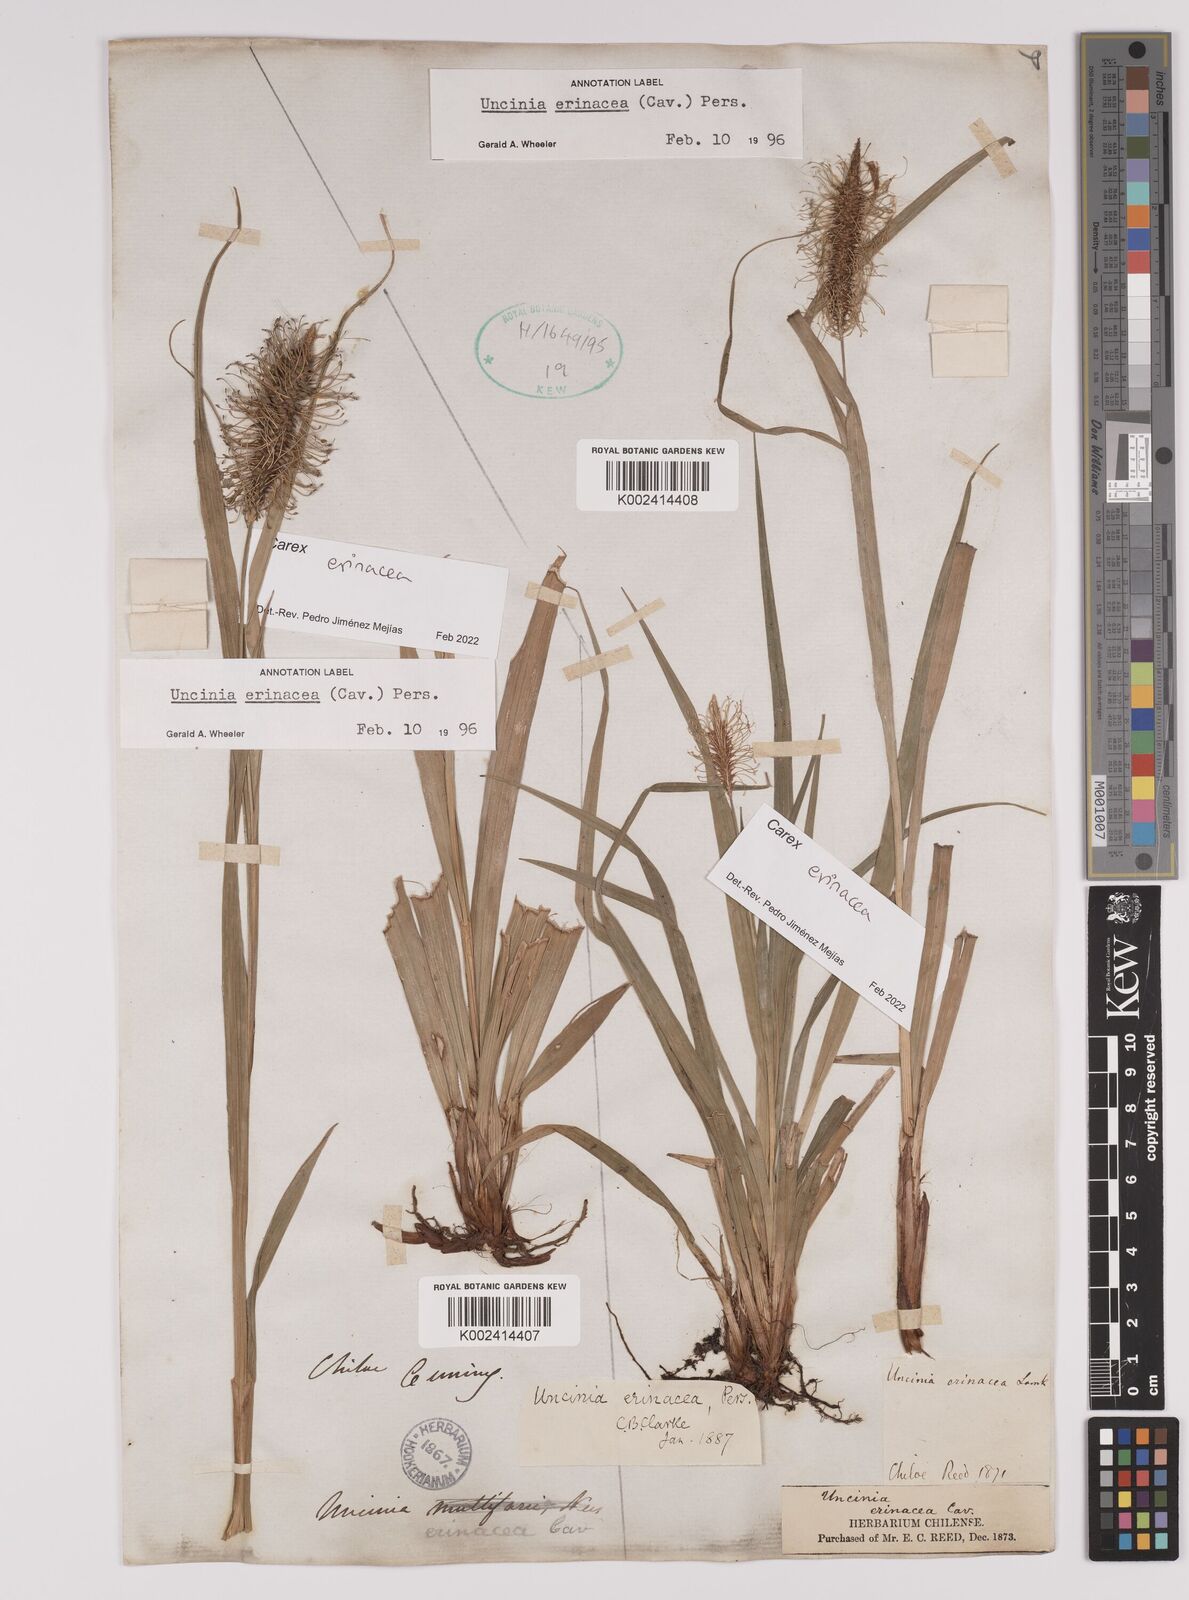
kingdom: Plantae
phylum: Tracheophyta
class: Liliopsida
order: Poales
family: Cyperaceae
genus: Carex
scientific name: Carex erinacea
